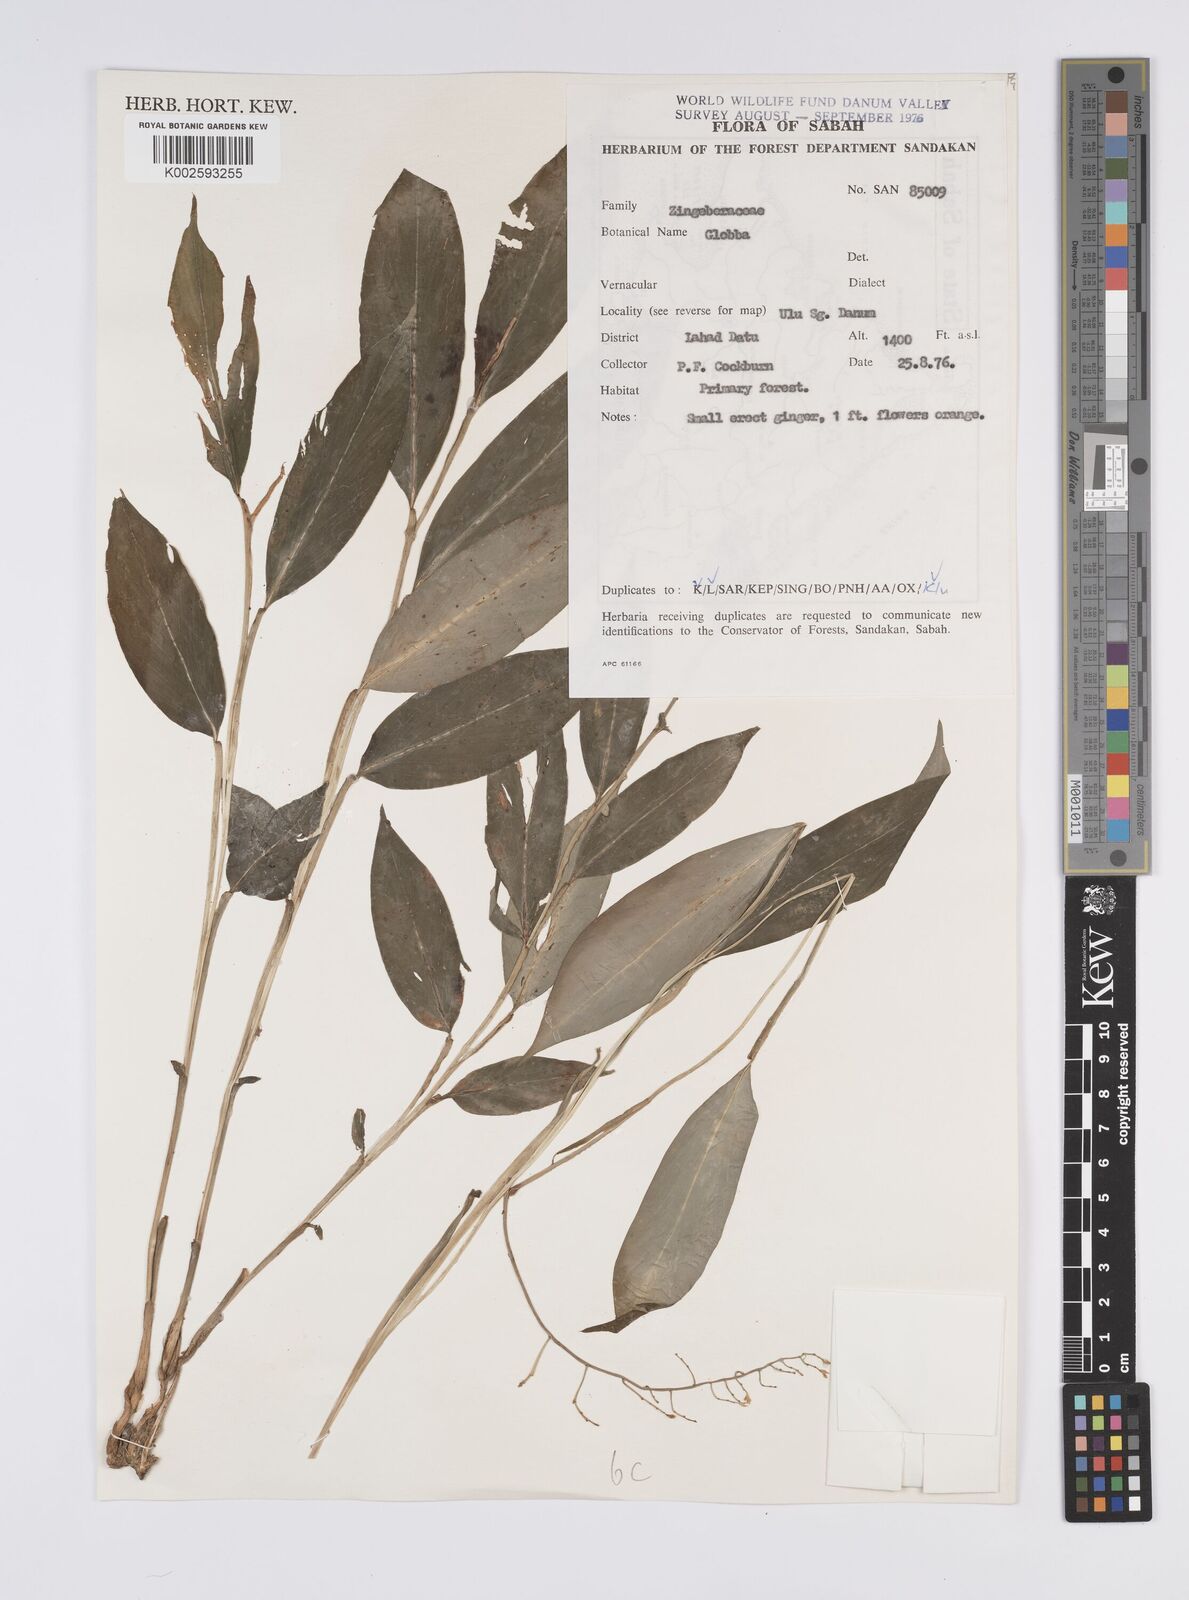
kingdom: Plantae
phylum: Tracheophyta
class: Liliopsida
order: Zingiberales
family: Zingiberaceae
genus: Globba
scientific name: Globba
